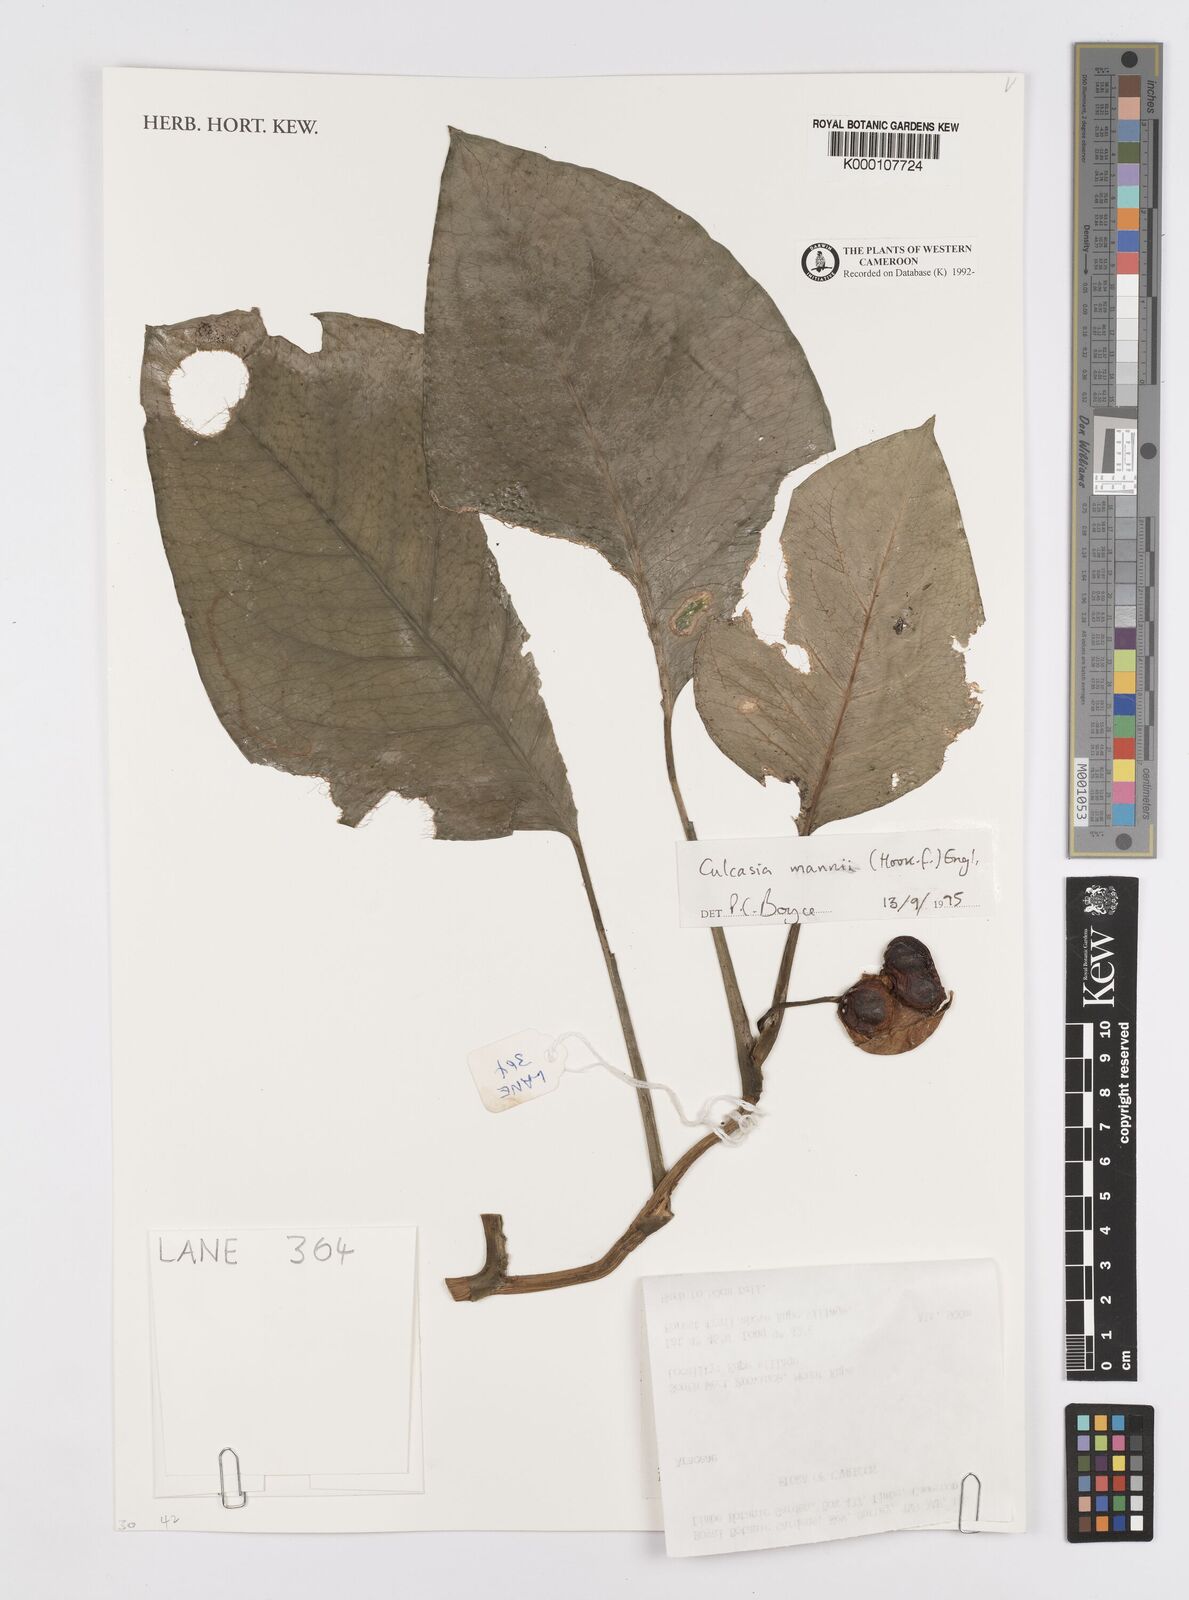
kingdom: Plantae
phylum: Tracheophyta
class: Liliopsida
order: Alismatales
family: Araceae
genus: Culcasia
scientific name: Culcasia mannii
